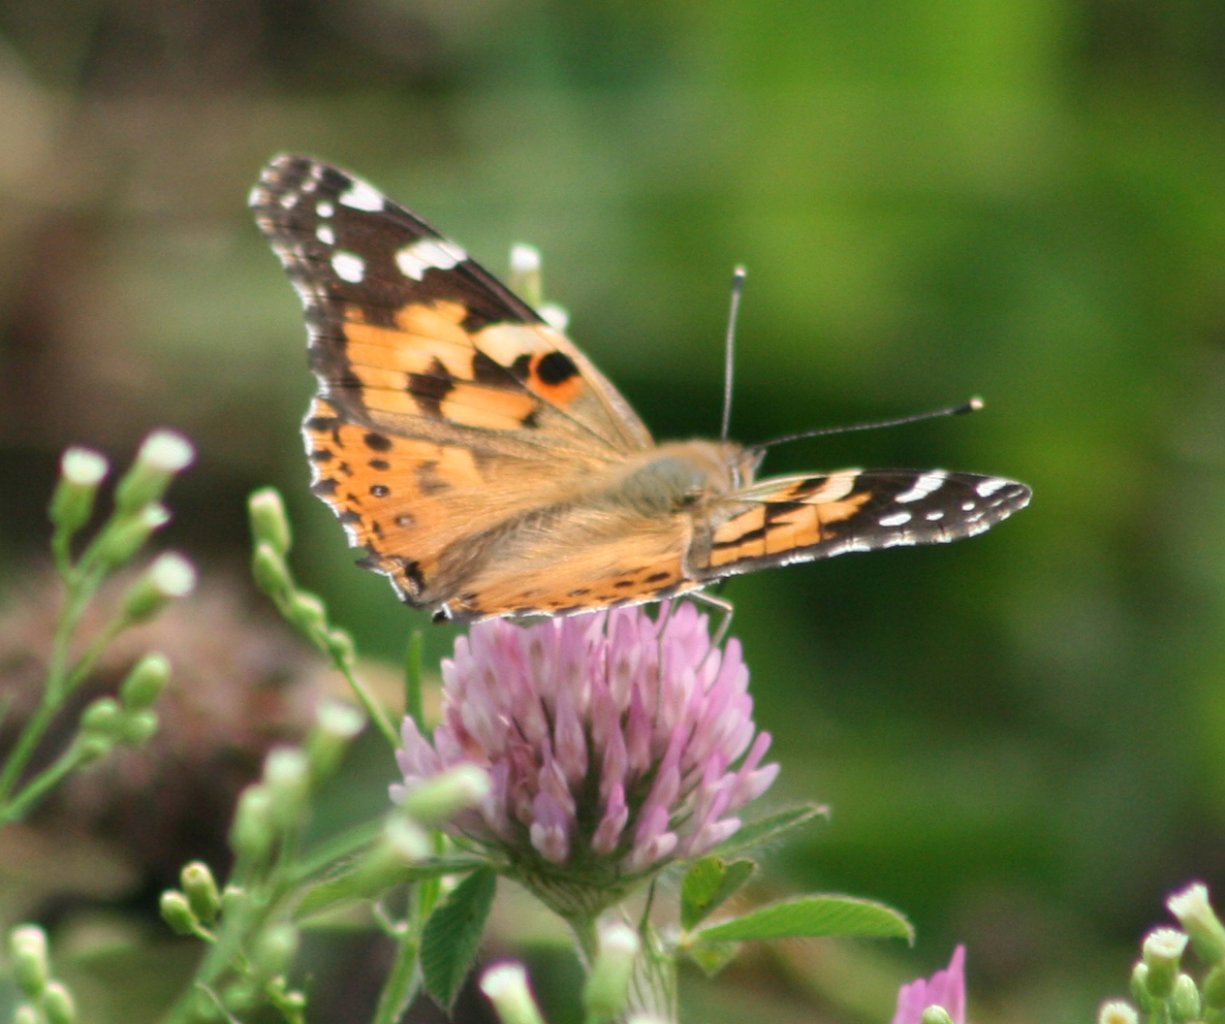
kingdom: Animalia
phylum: Arthropoda
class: Insecta
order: Lepidoptera
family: Nymphalidae
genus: Vanessa
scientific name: Vanessa cardui
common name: Painted Lady
